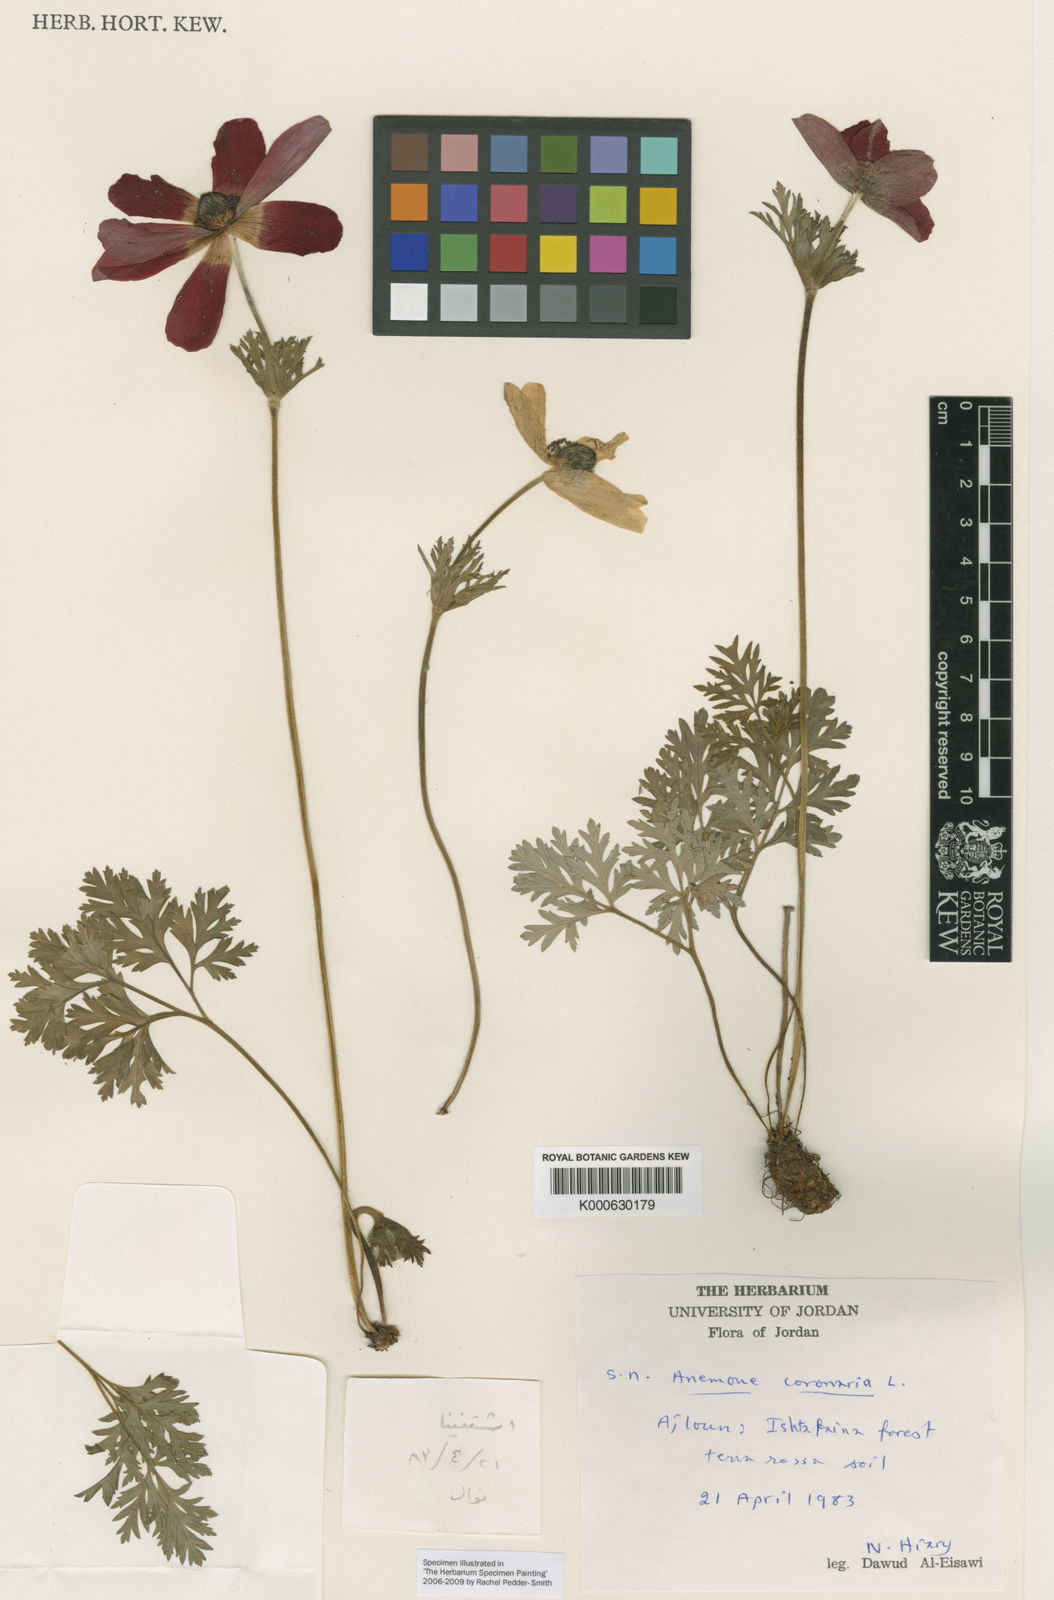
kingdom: Plantae
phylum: Tracheophyta
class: Magnoliopsida
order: Ranunculales
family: Ranunculaceae
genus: Anemone
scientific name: Anemone coronaria
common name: Poppy anemone
